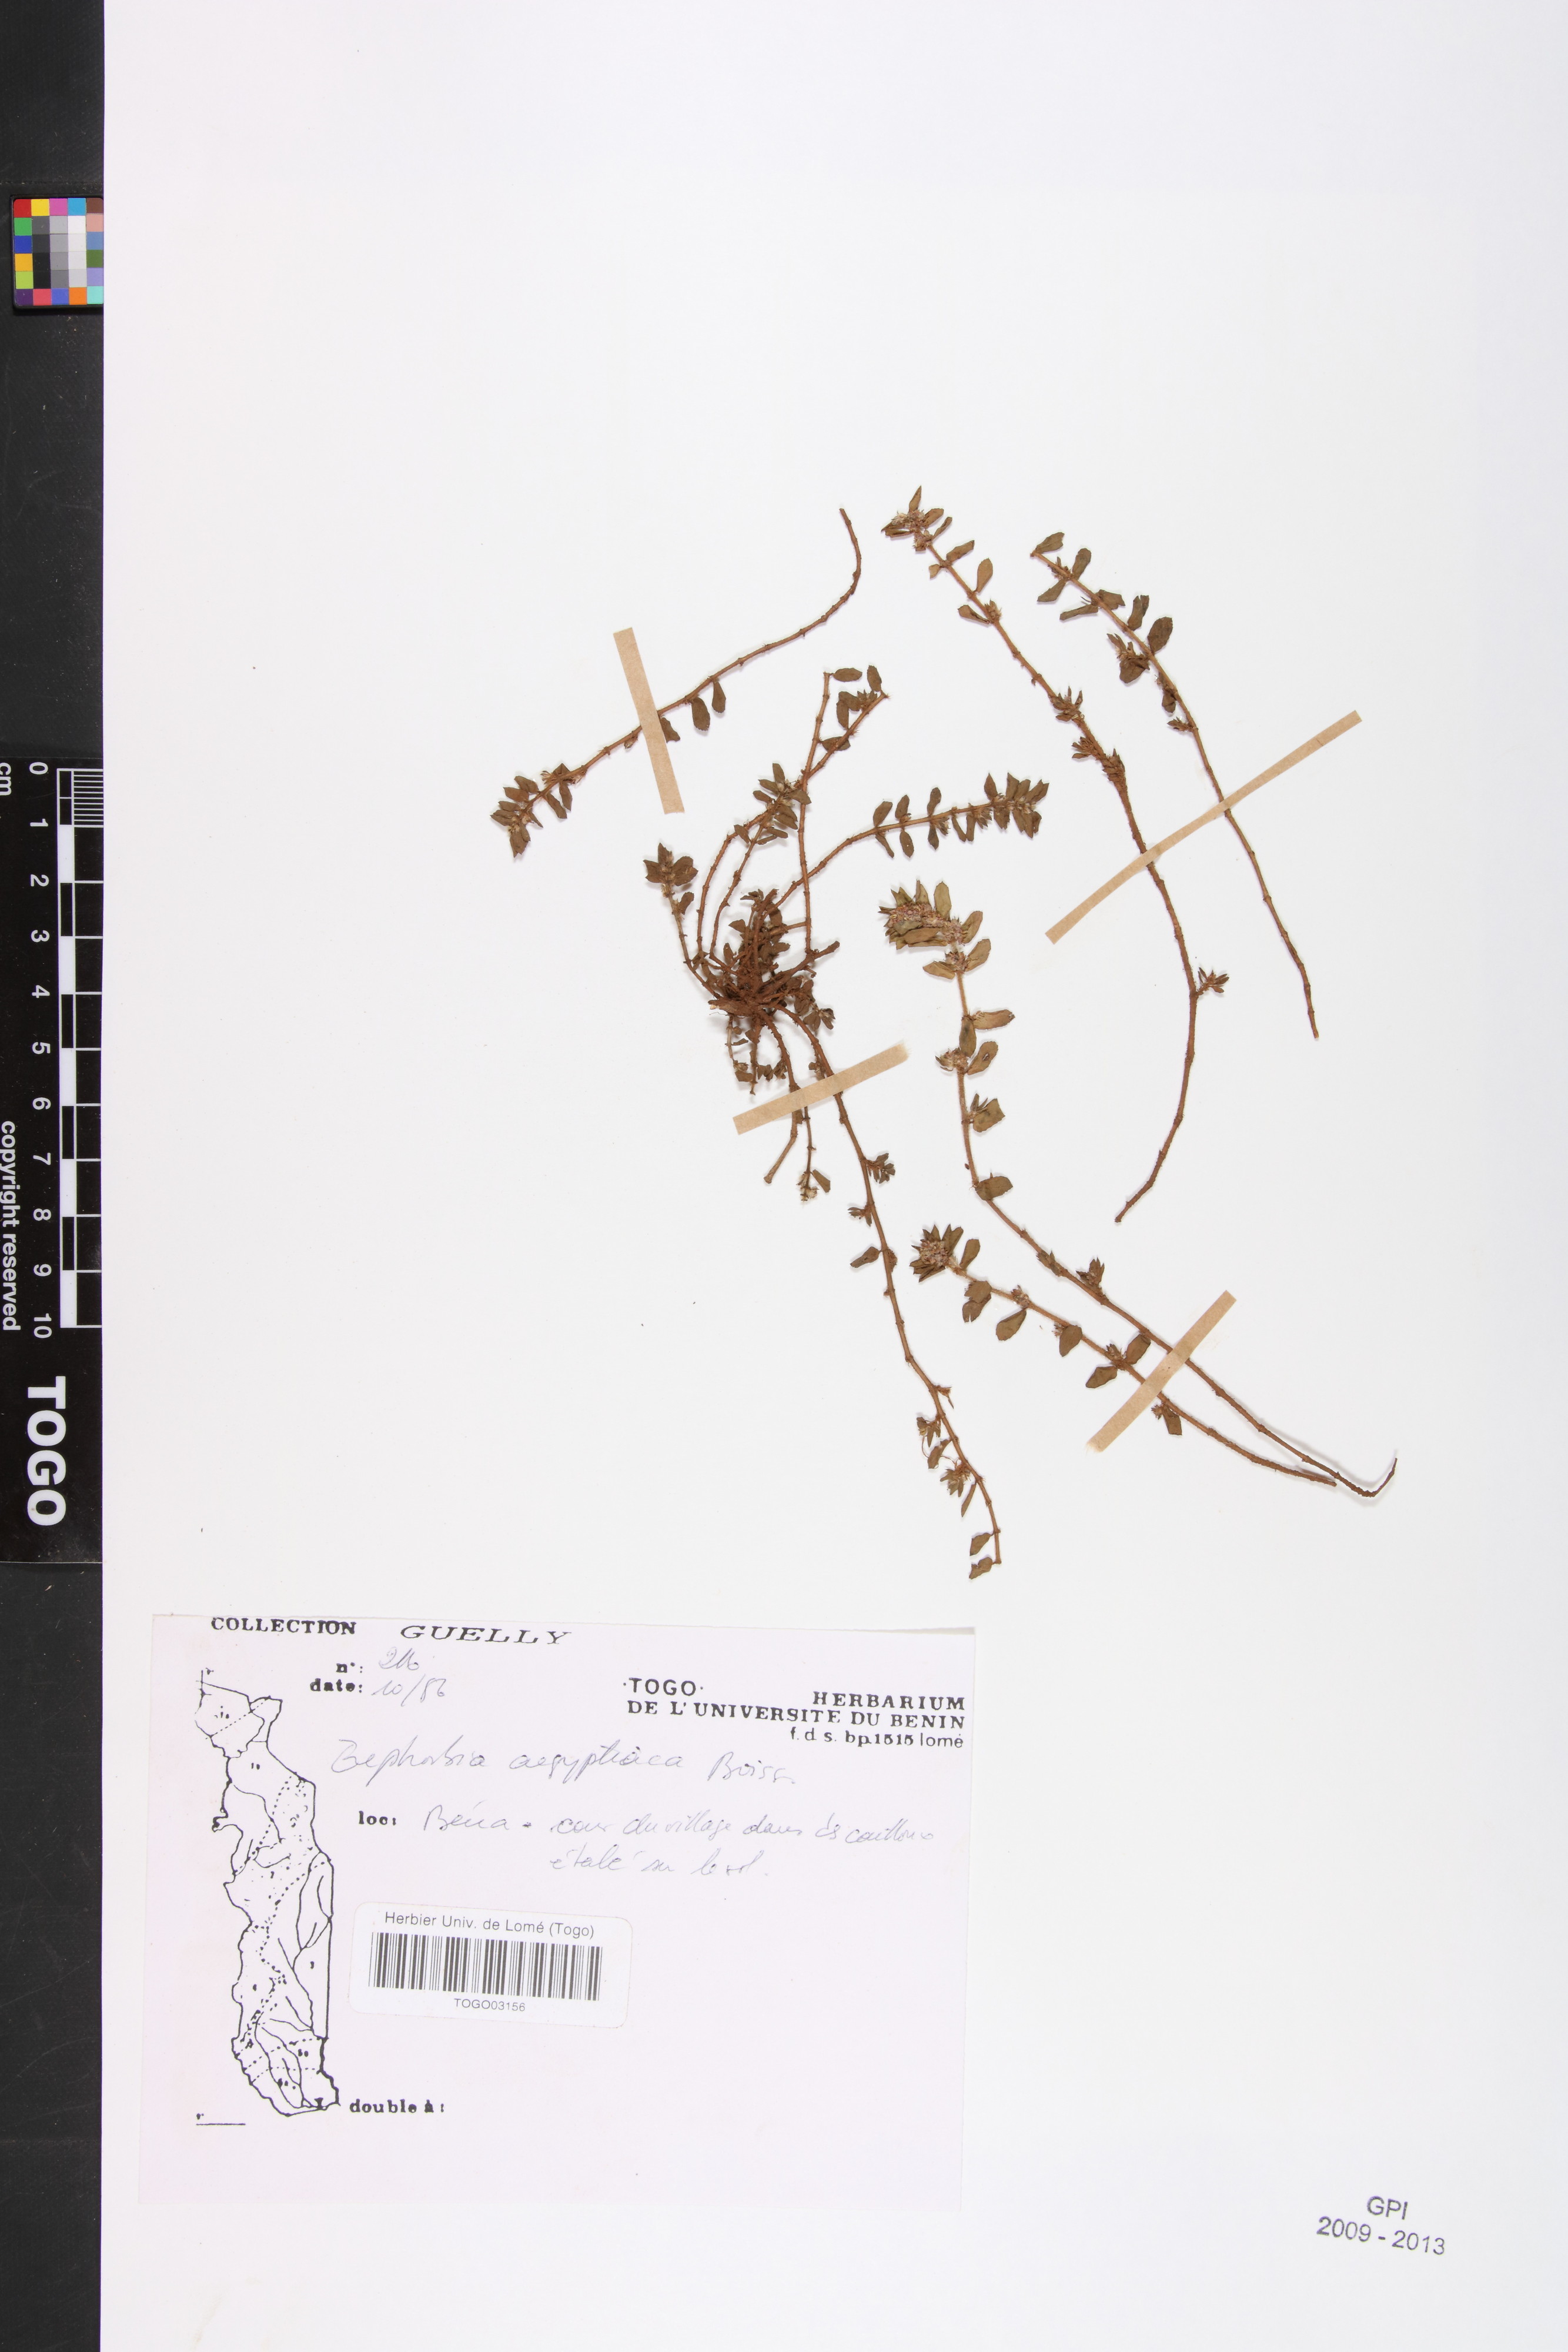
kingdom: Plantae
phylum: Tracheophyta
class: Magnoliopsida
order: Malpighiales
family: Euphorbiaceae
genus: Euphorbia
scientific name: Euphorbia forskaolii
